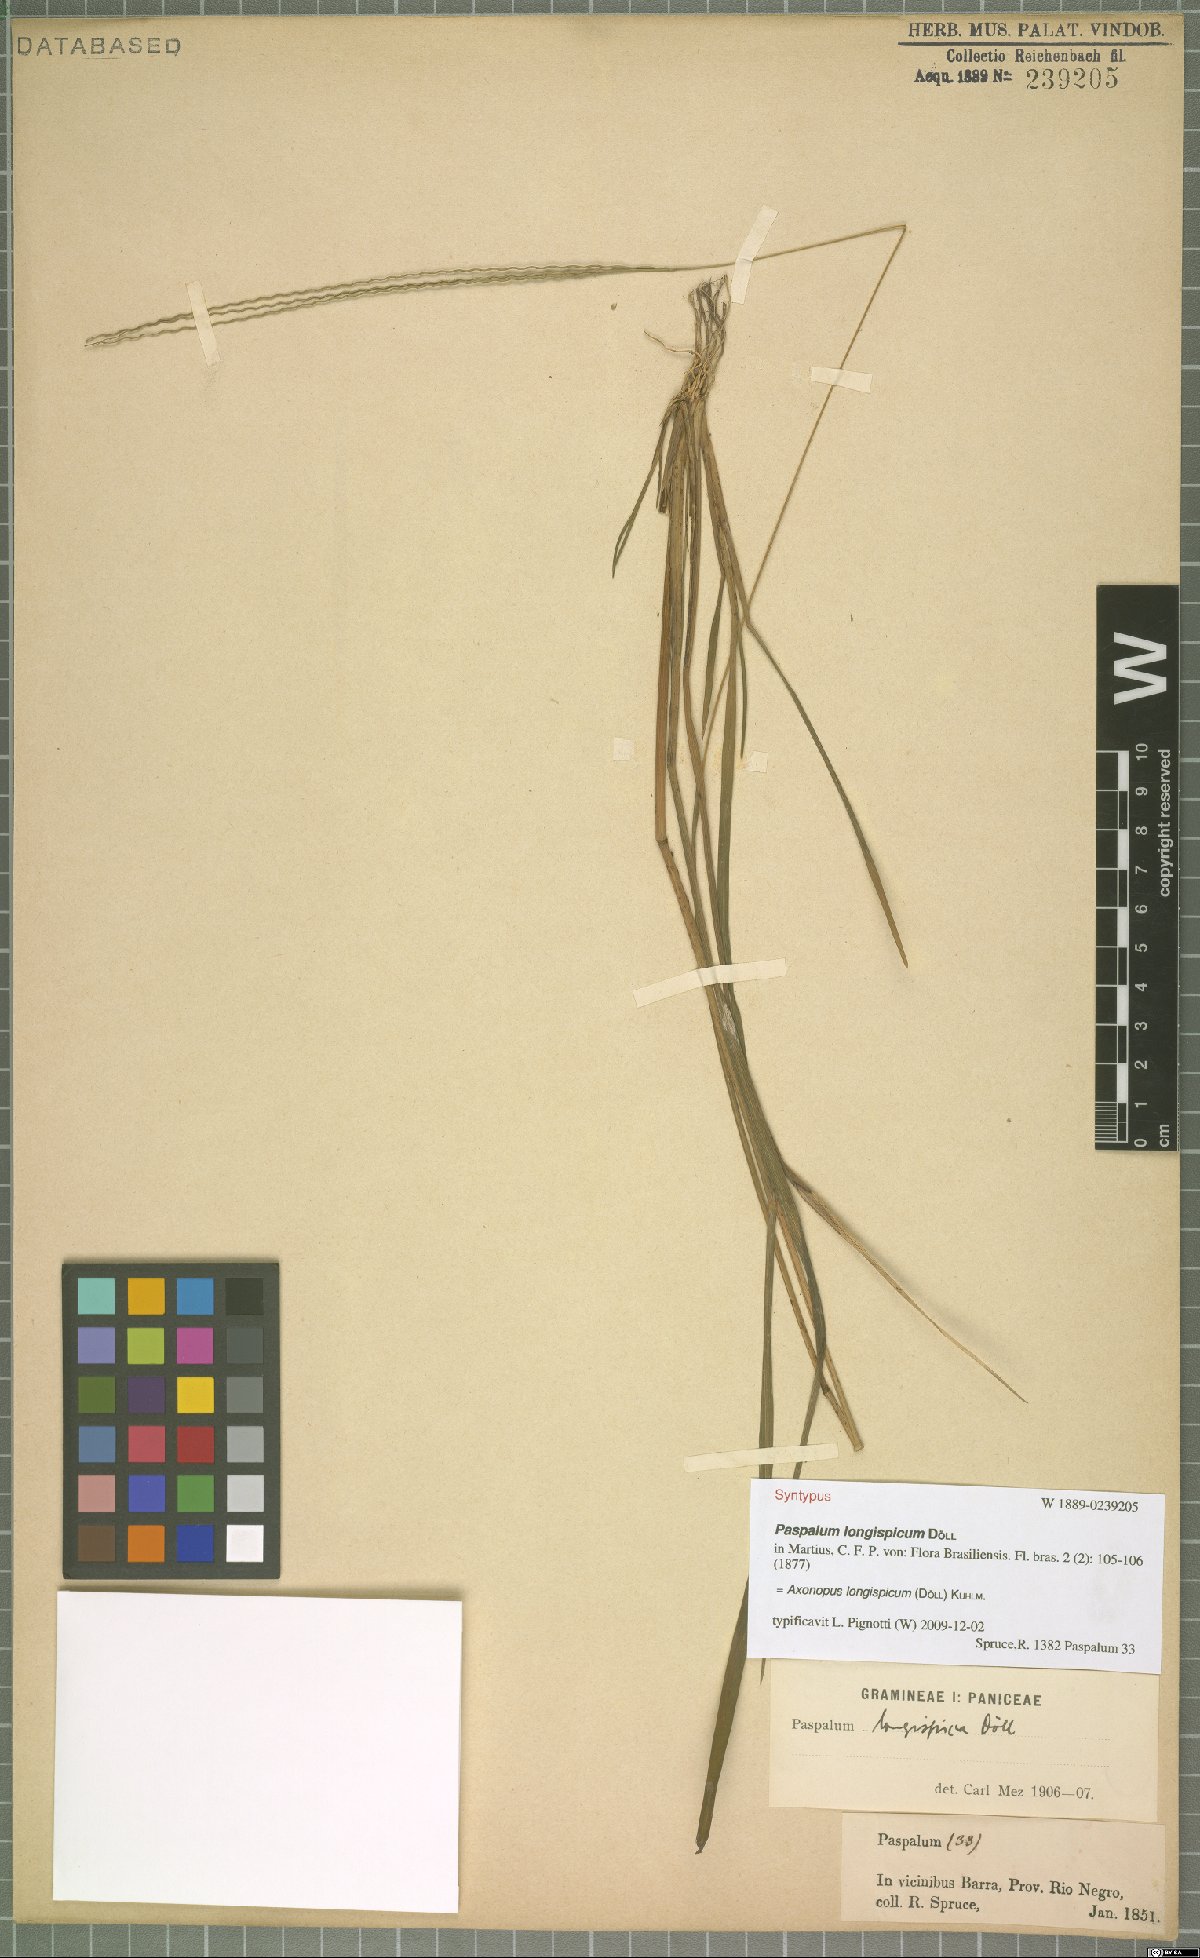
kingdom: Plantae
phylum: Tracheophyta
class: Liliopsida
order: Poales
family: Poaceae
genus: Axonopus
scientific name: Axonopus longispicus
